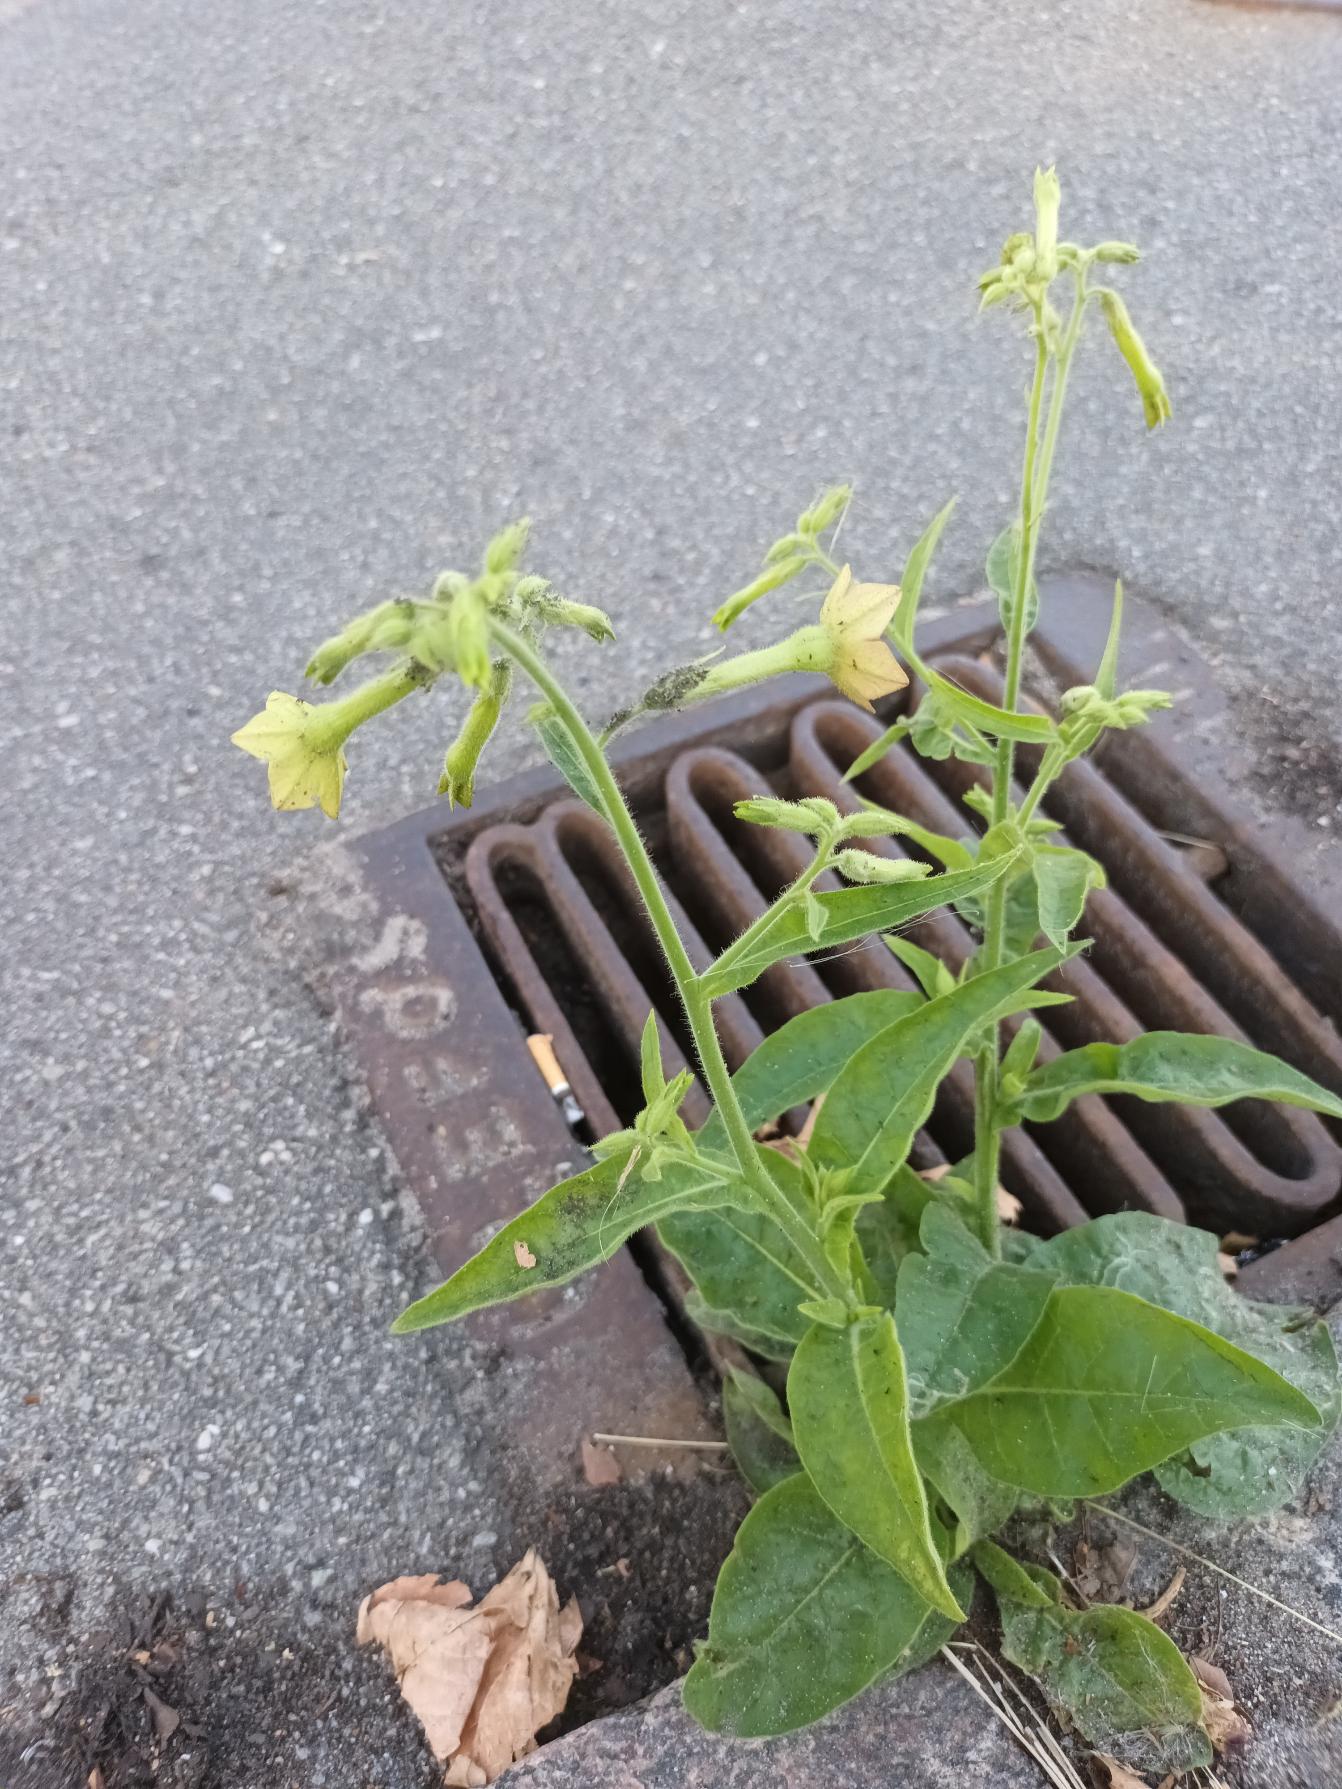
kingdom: Plantae
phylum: Tracheophyta
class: Magnoliopsida
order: Solanales
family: Solanaceae
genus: Nicotiana
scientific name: Nicotiana langsdorffii
